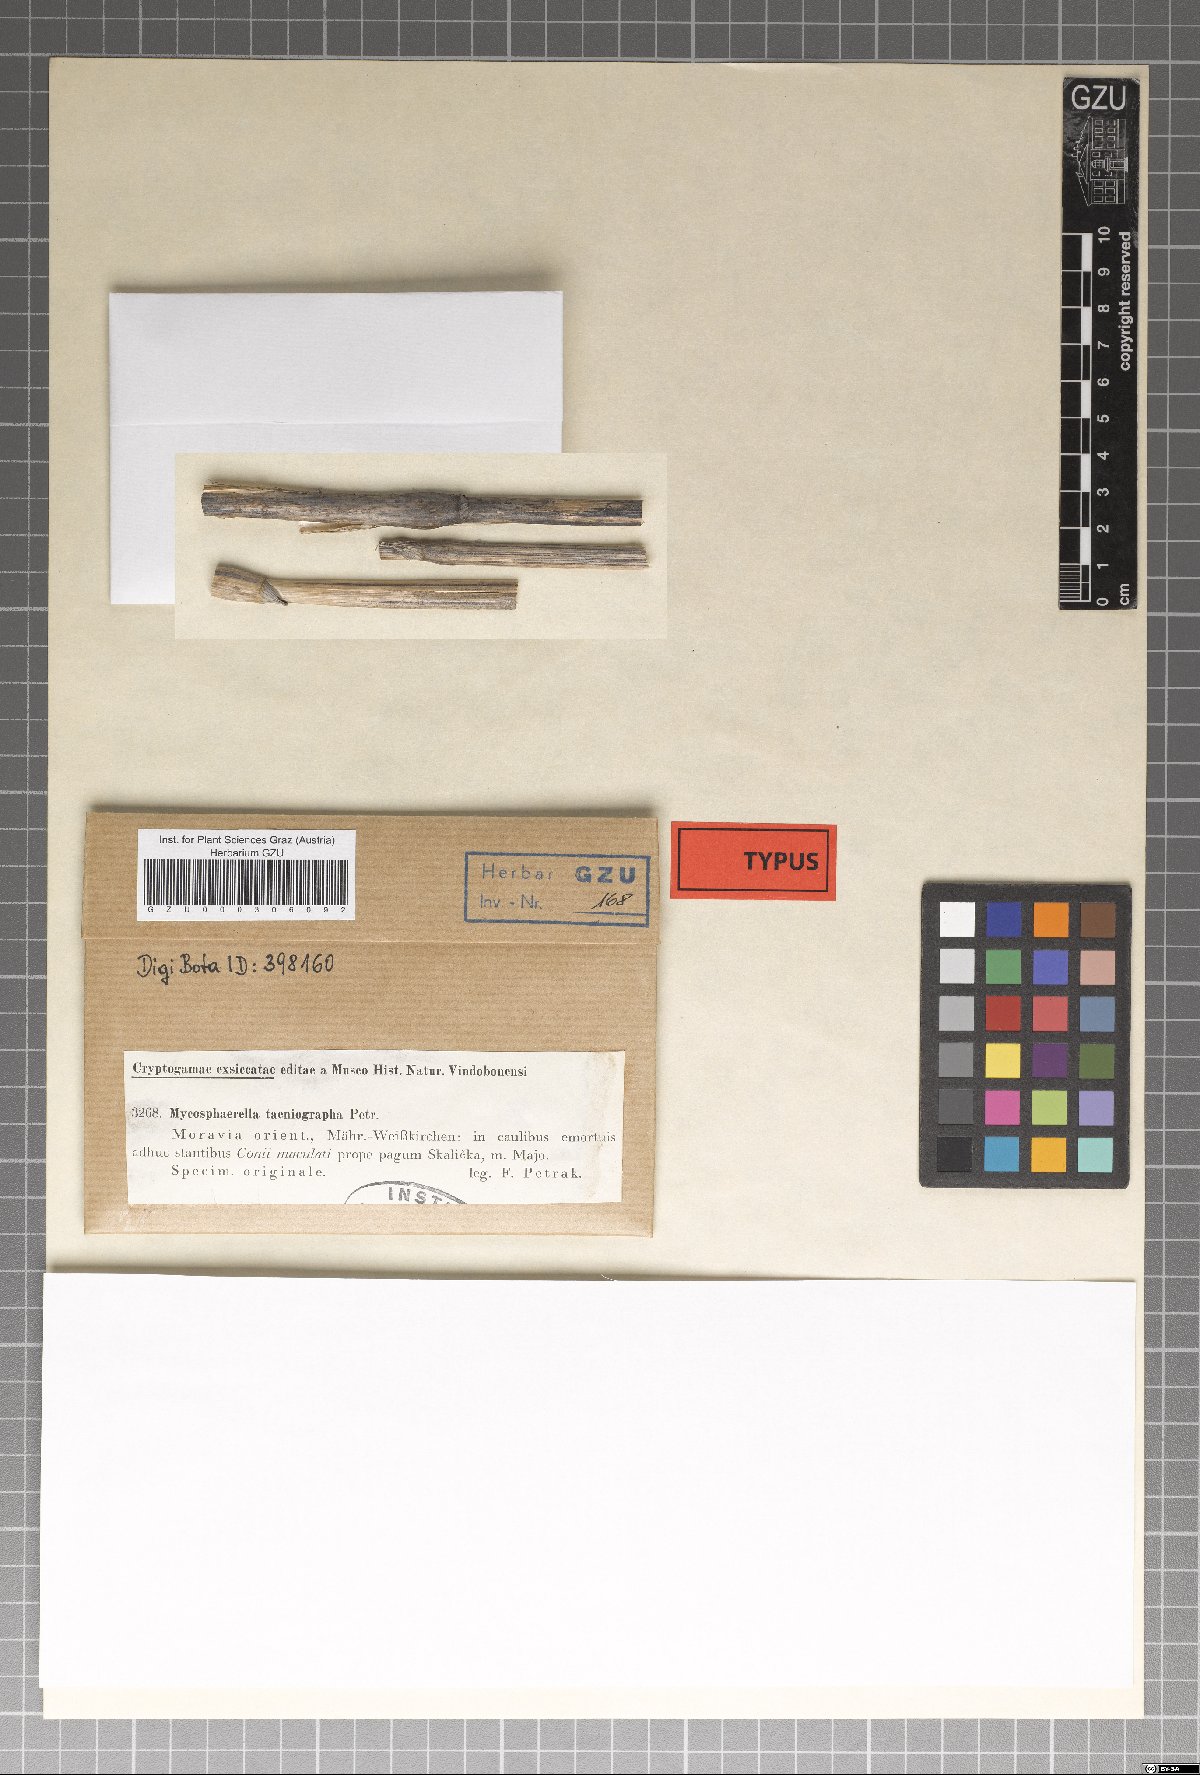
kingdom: Fungi
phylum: Ascomycota
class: Dothideomycetes
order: Mycosphaerellales
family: Mycosphaerellaceae
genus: Mycosphaerella
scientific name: Mycosphaerella taeniographa
